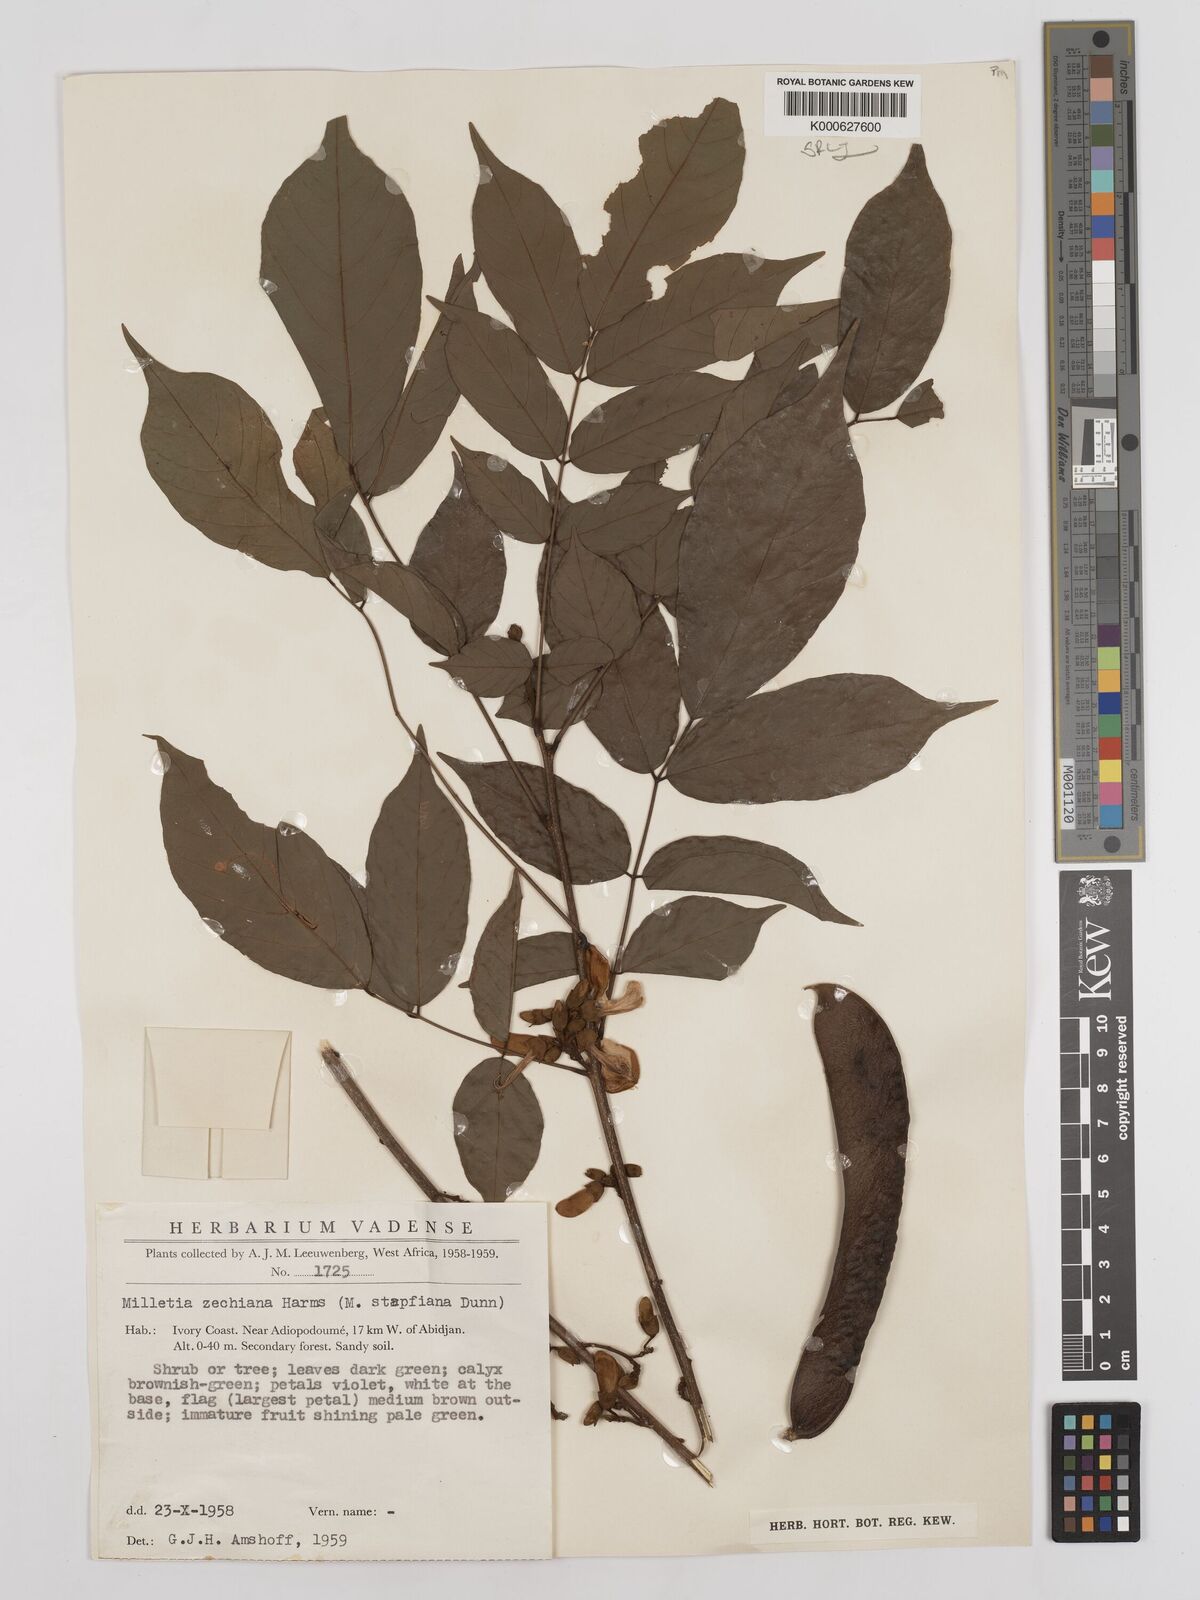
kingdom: Plantae
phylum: Tracheophyta
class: Magnoliopsida
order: Fabales
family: Fabaceae
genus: Millettia
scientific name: Millettia zechiana
